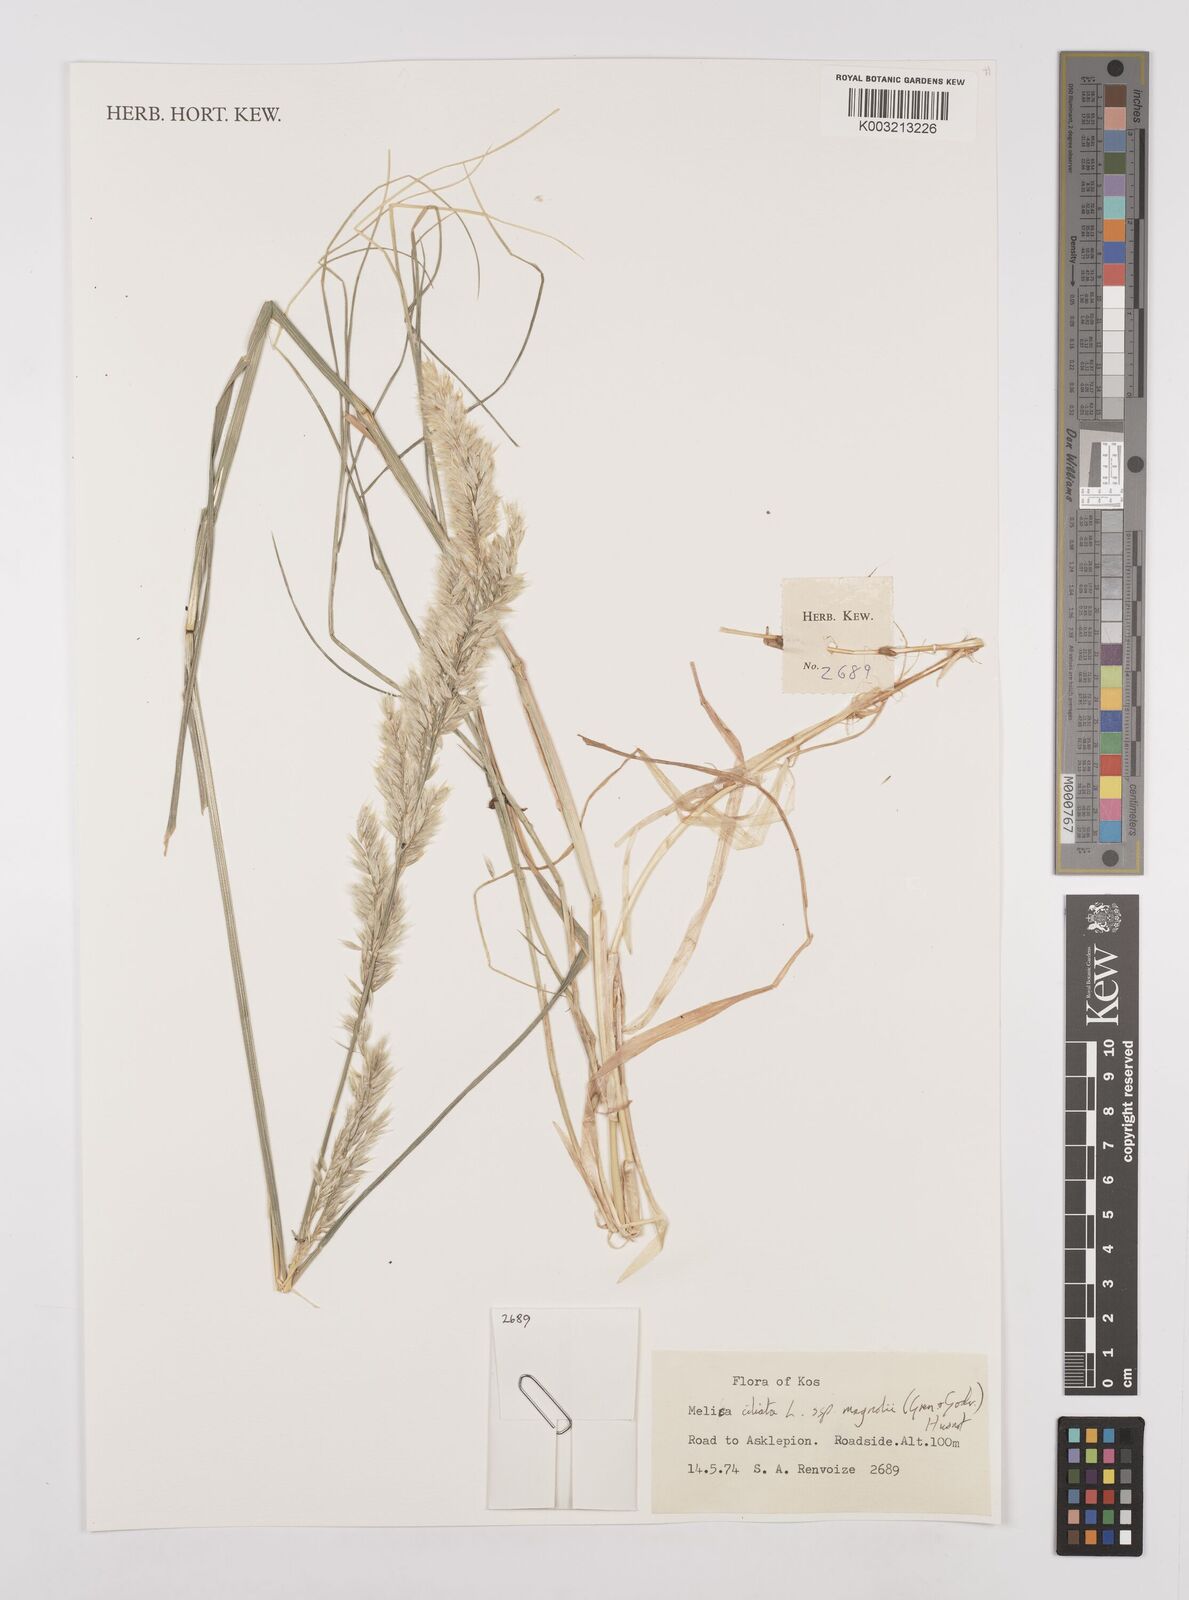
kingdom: Plantae
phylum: Tracheophyta
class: Liliopsida
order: Poales
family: Poaceae
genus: Melica
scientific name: Melica ciliata
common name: Hairy melicgrass
